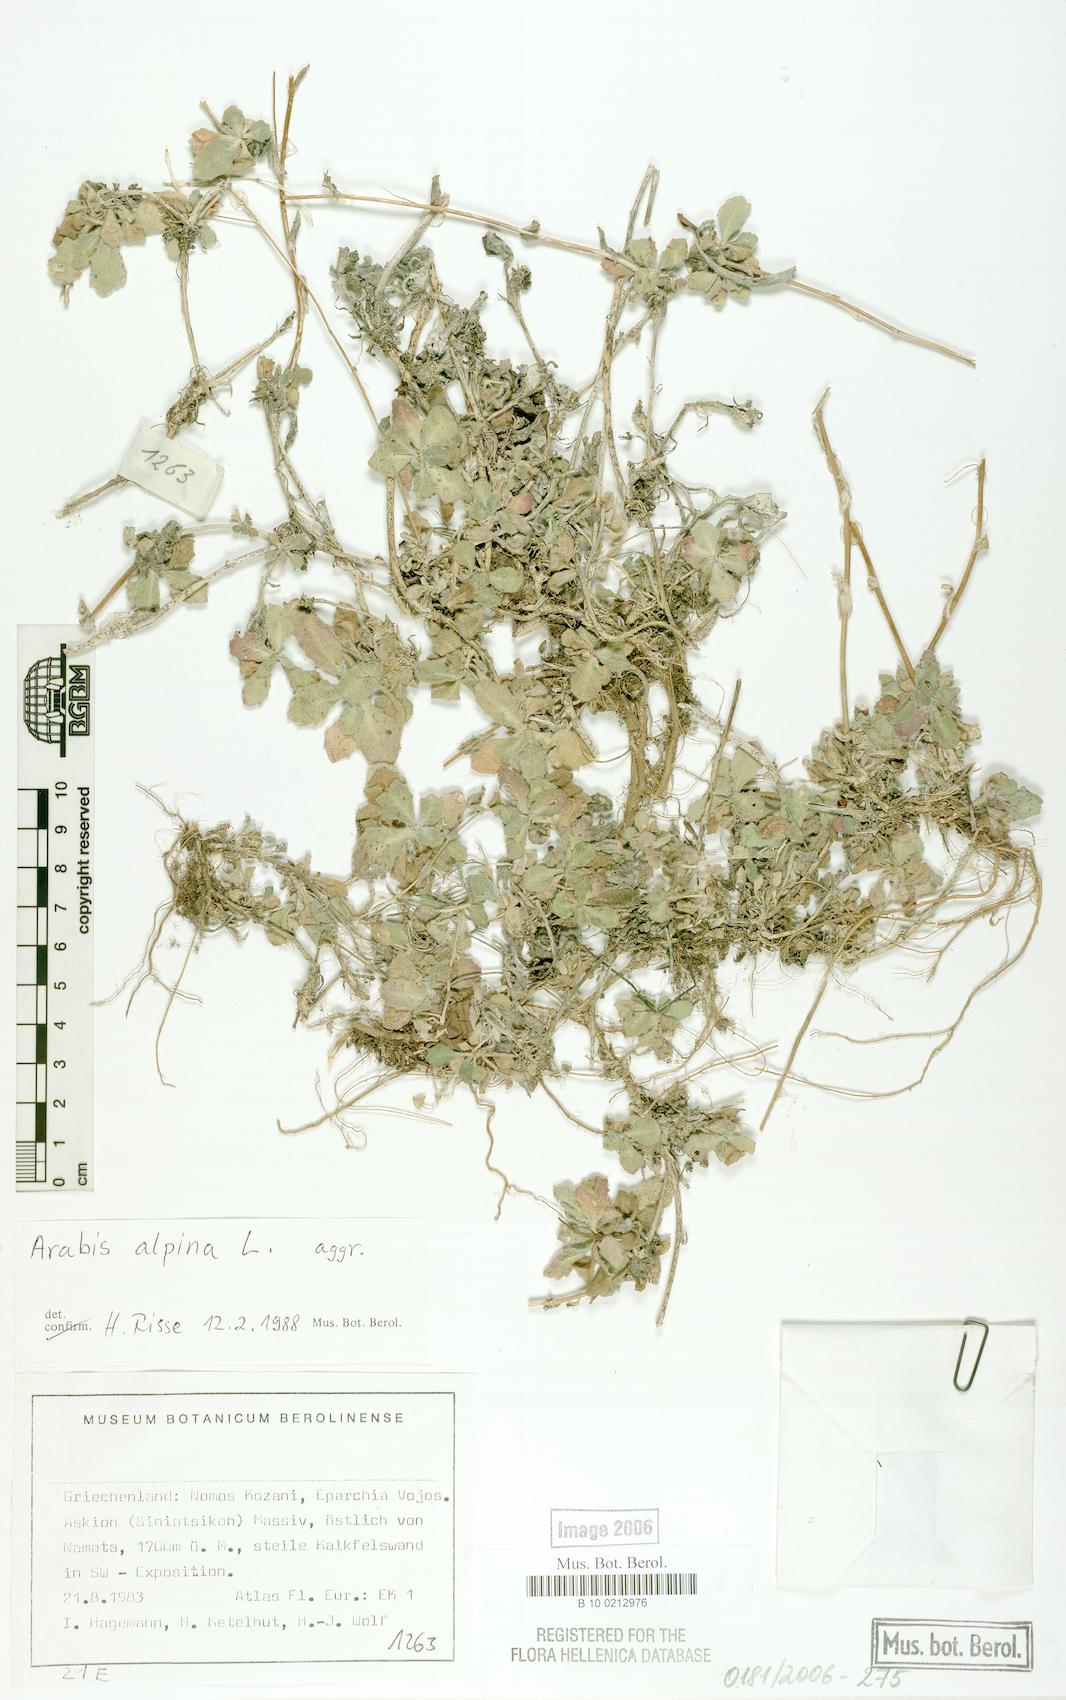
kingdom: Plantae
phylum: Tracheophyta
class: Magnoliopsida
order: Brassicales
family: Brassicaceae
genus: Arabis
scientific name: Arabis alpina
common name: Alpine rock-cress
